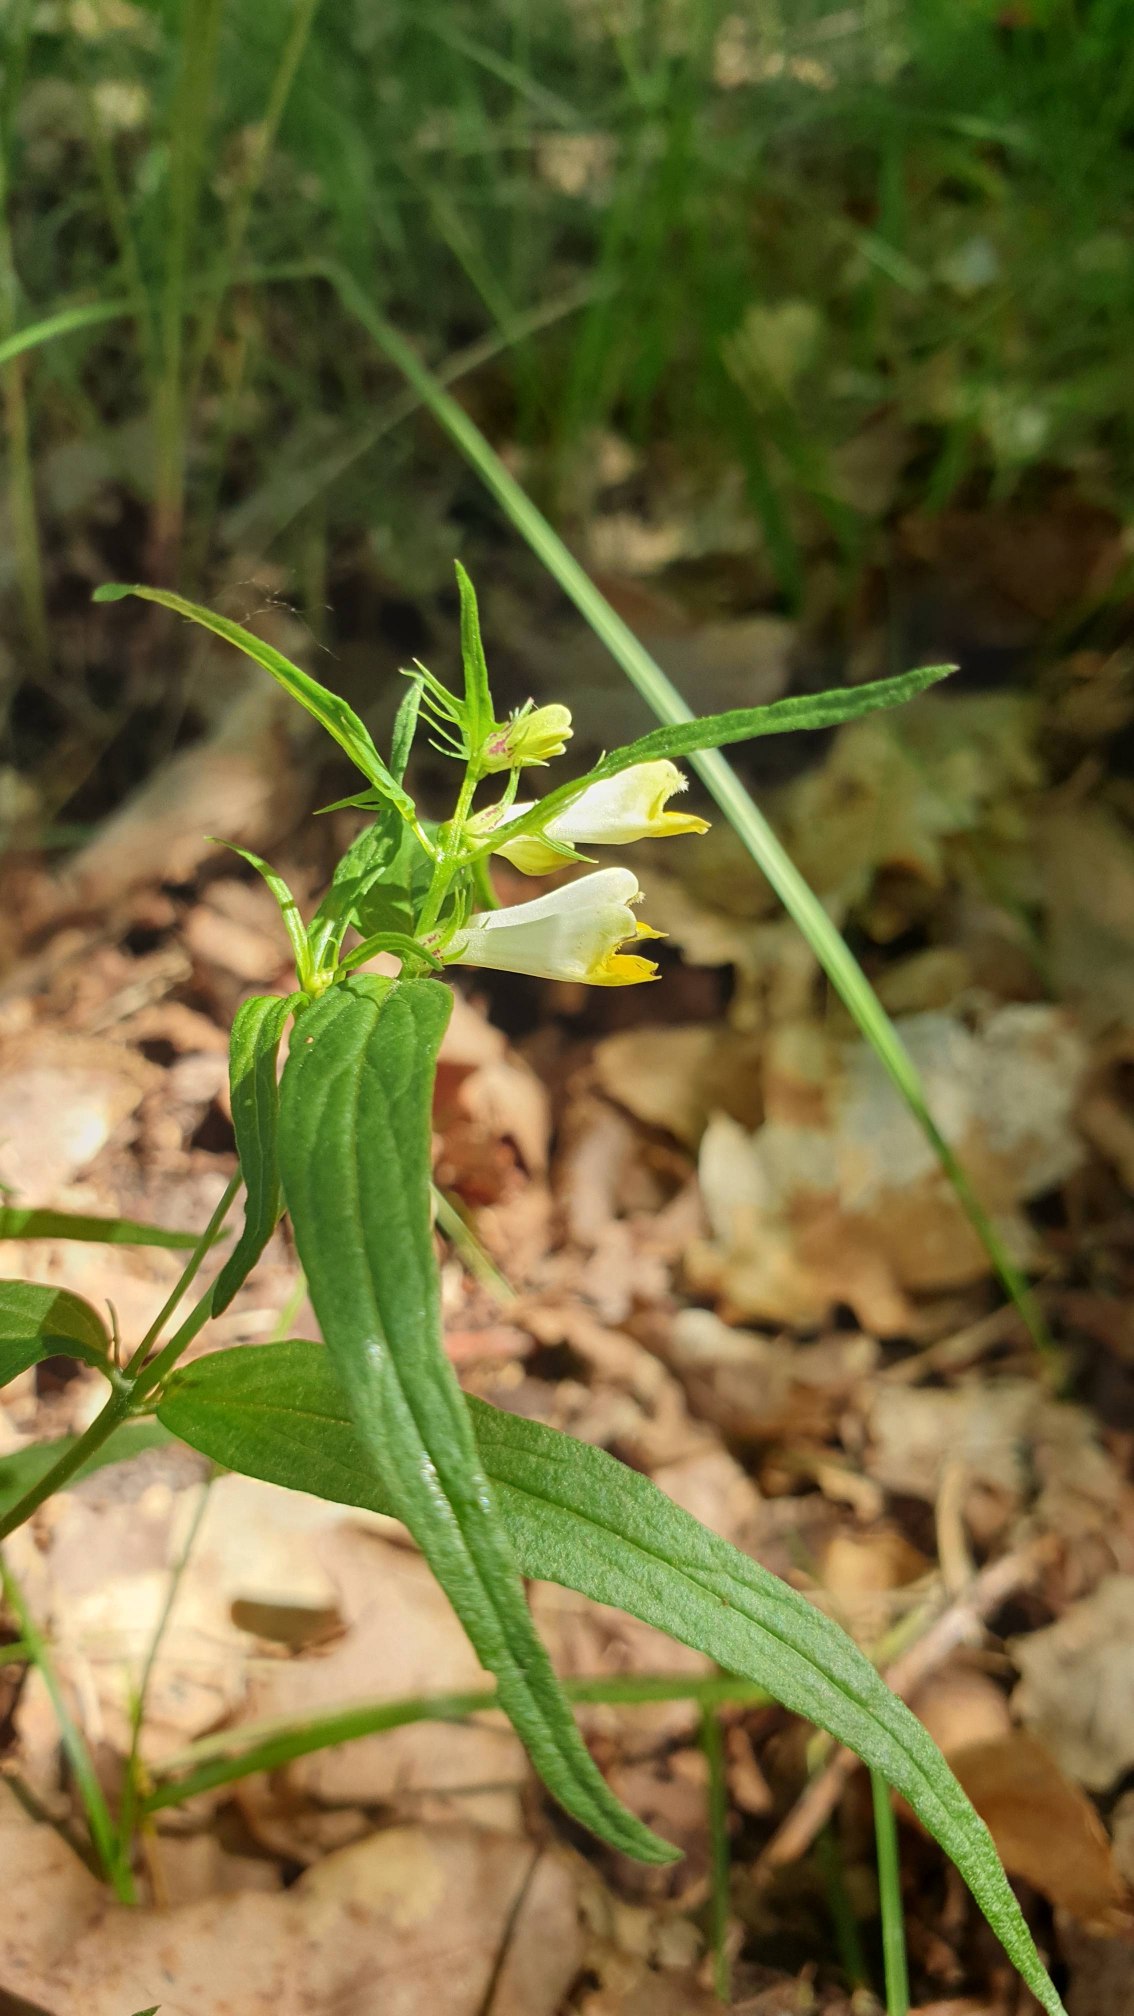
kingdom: Plantae
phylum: Tracheophyta
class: Magnoliopsida
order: Lamiales
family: Orobanchaceae
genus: Melampyrum
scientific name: Melampyrum pratense
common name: Almindelig kohvede
